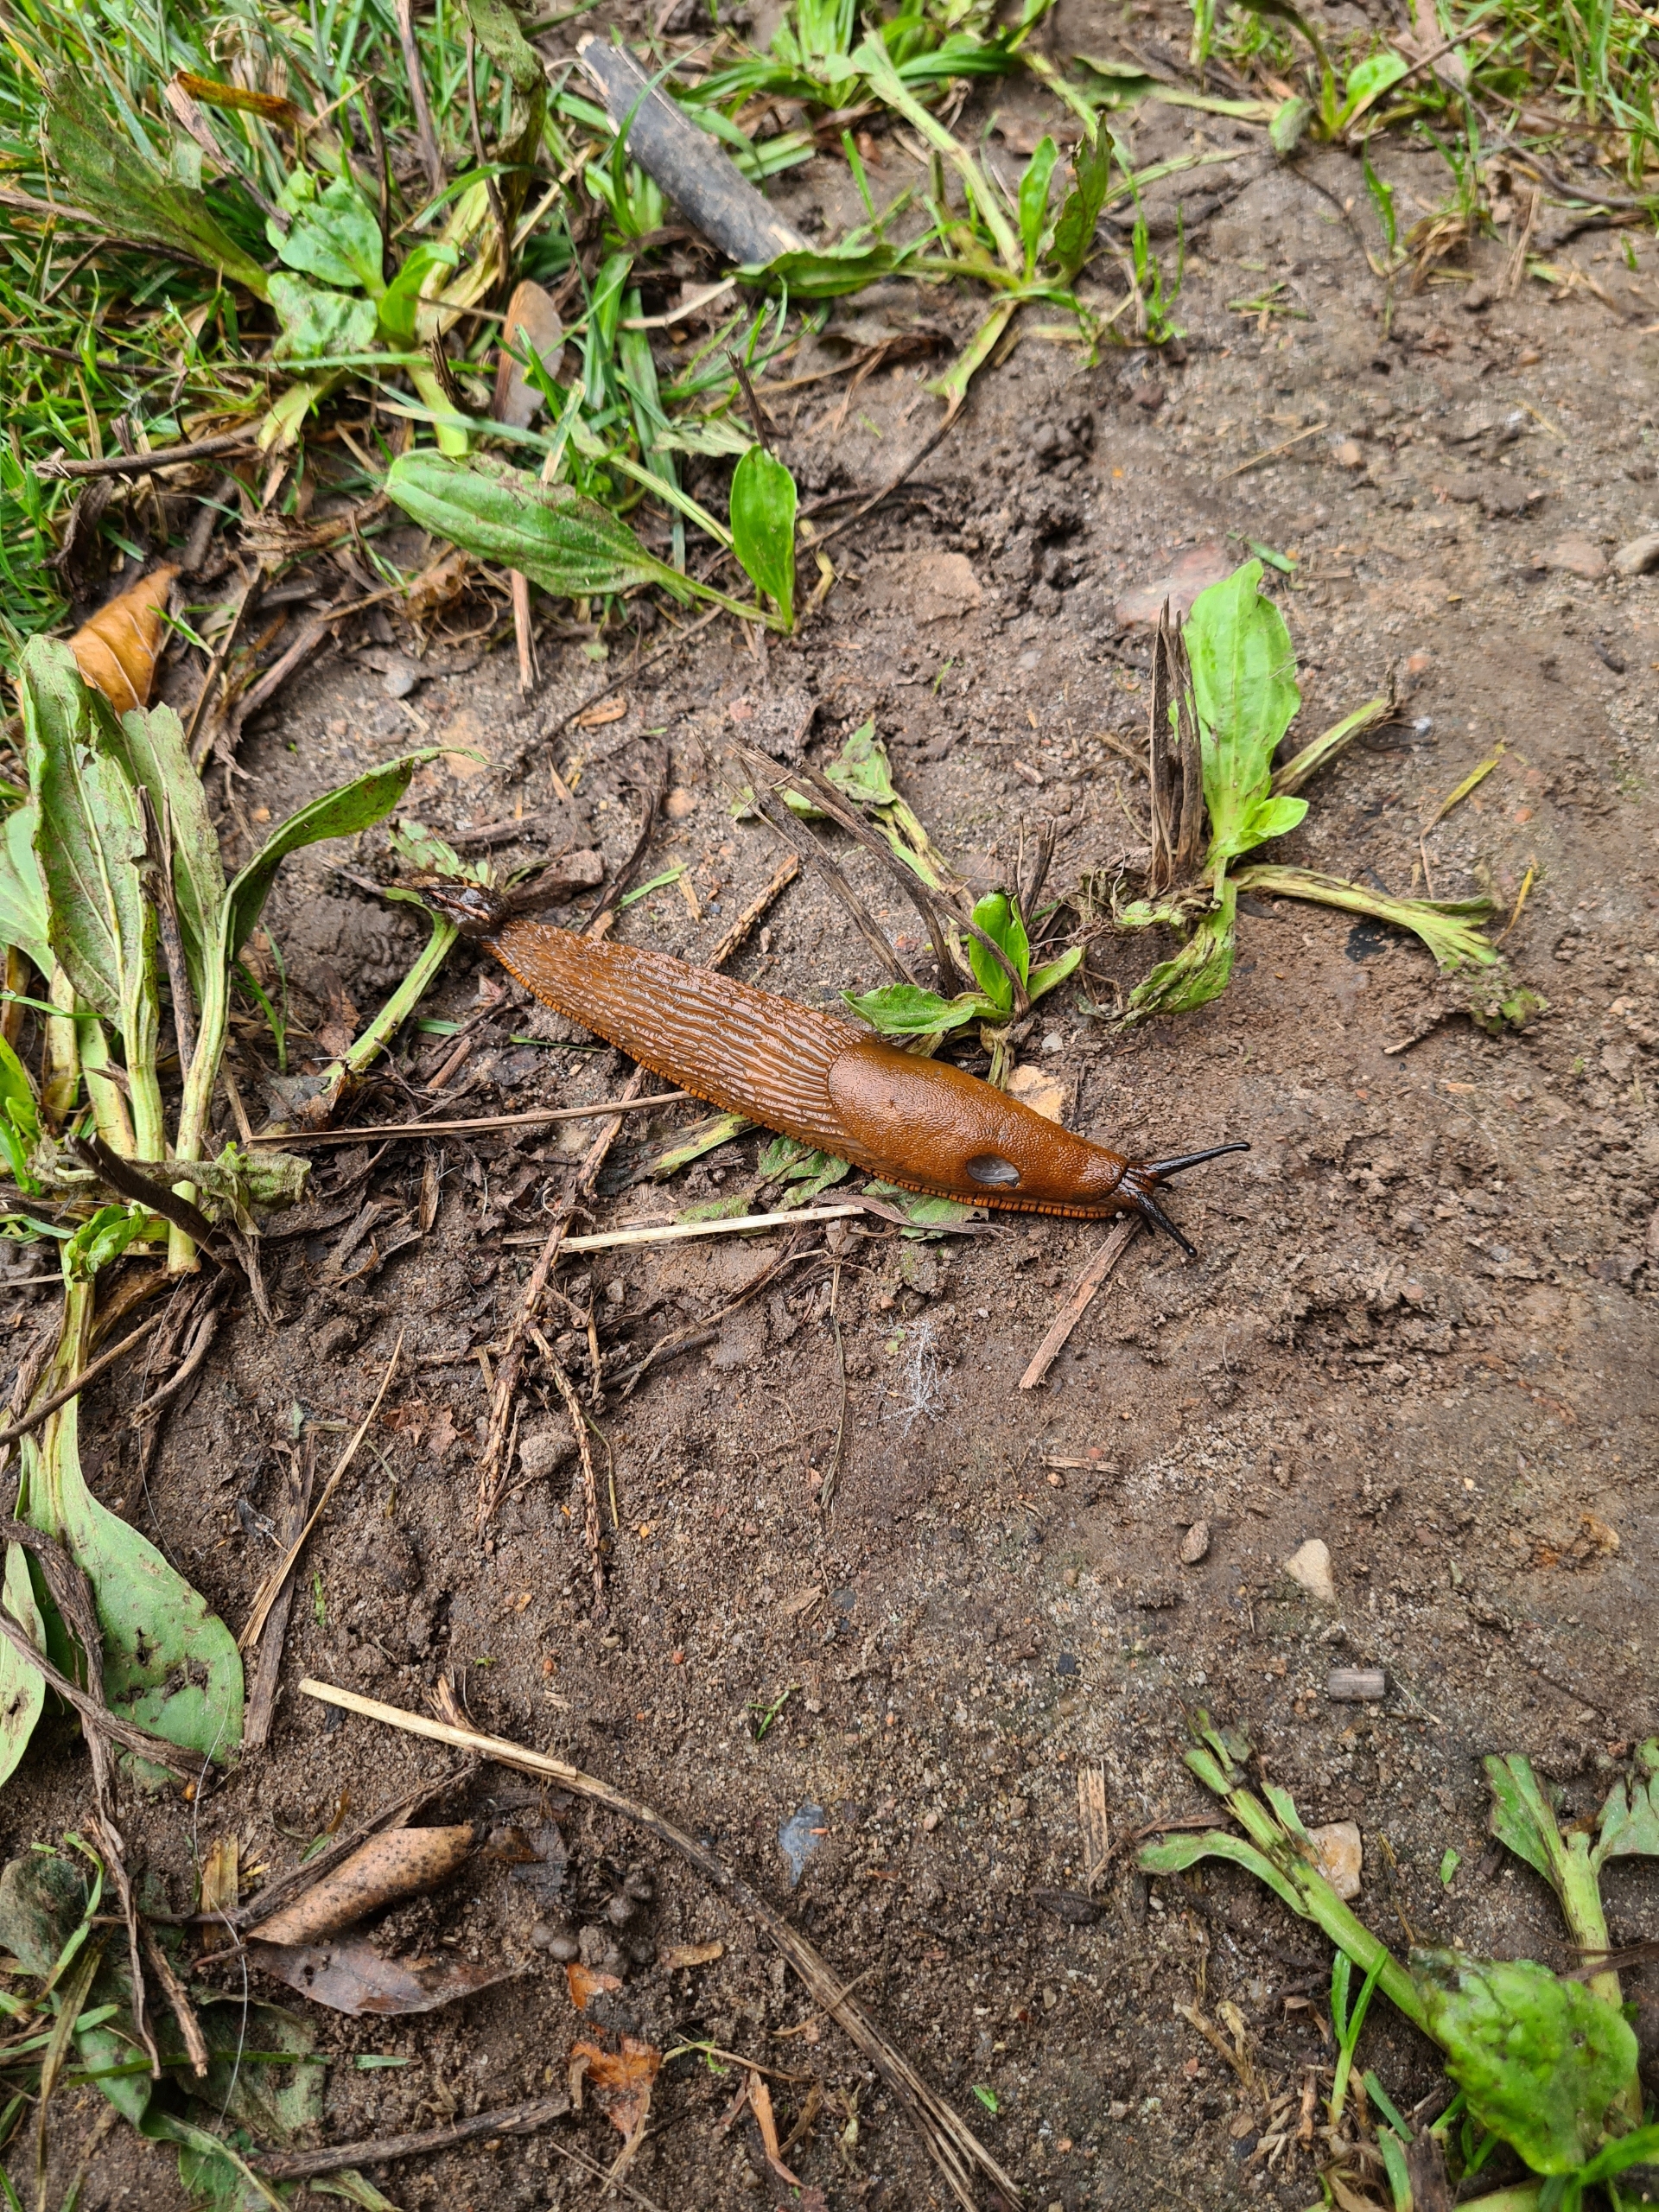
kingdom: Animalia
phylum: Mollusca
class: Gastropoda
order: Stylommatophora
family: Arionidae
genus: Arion
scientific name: Arion vulgaris
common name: Iberisk skovsnegl
